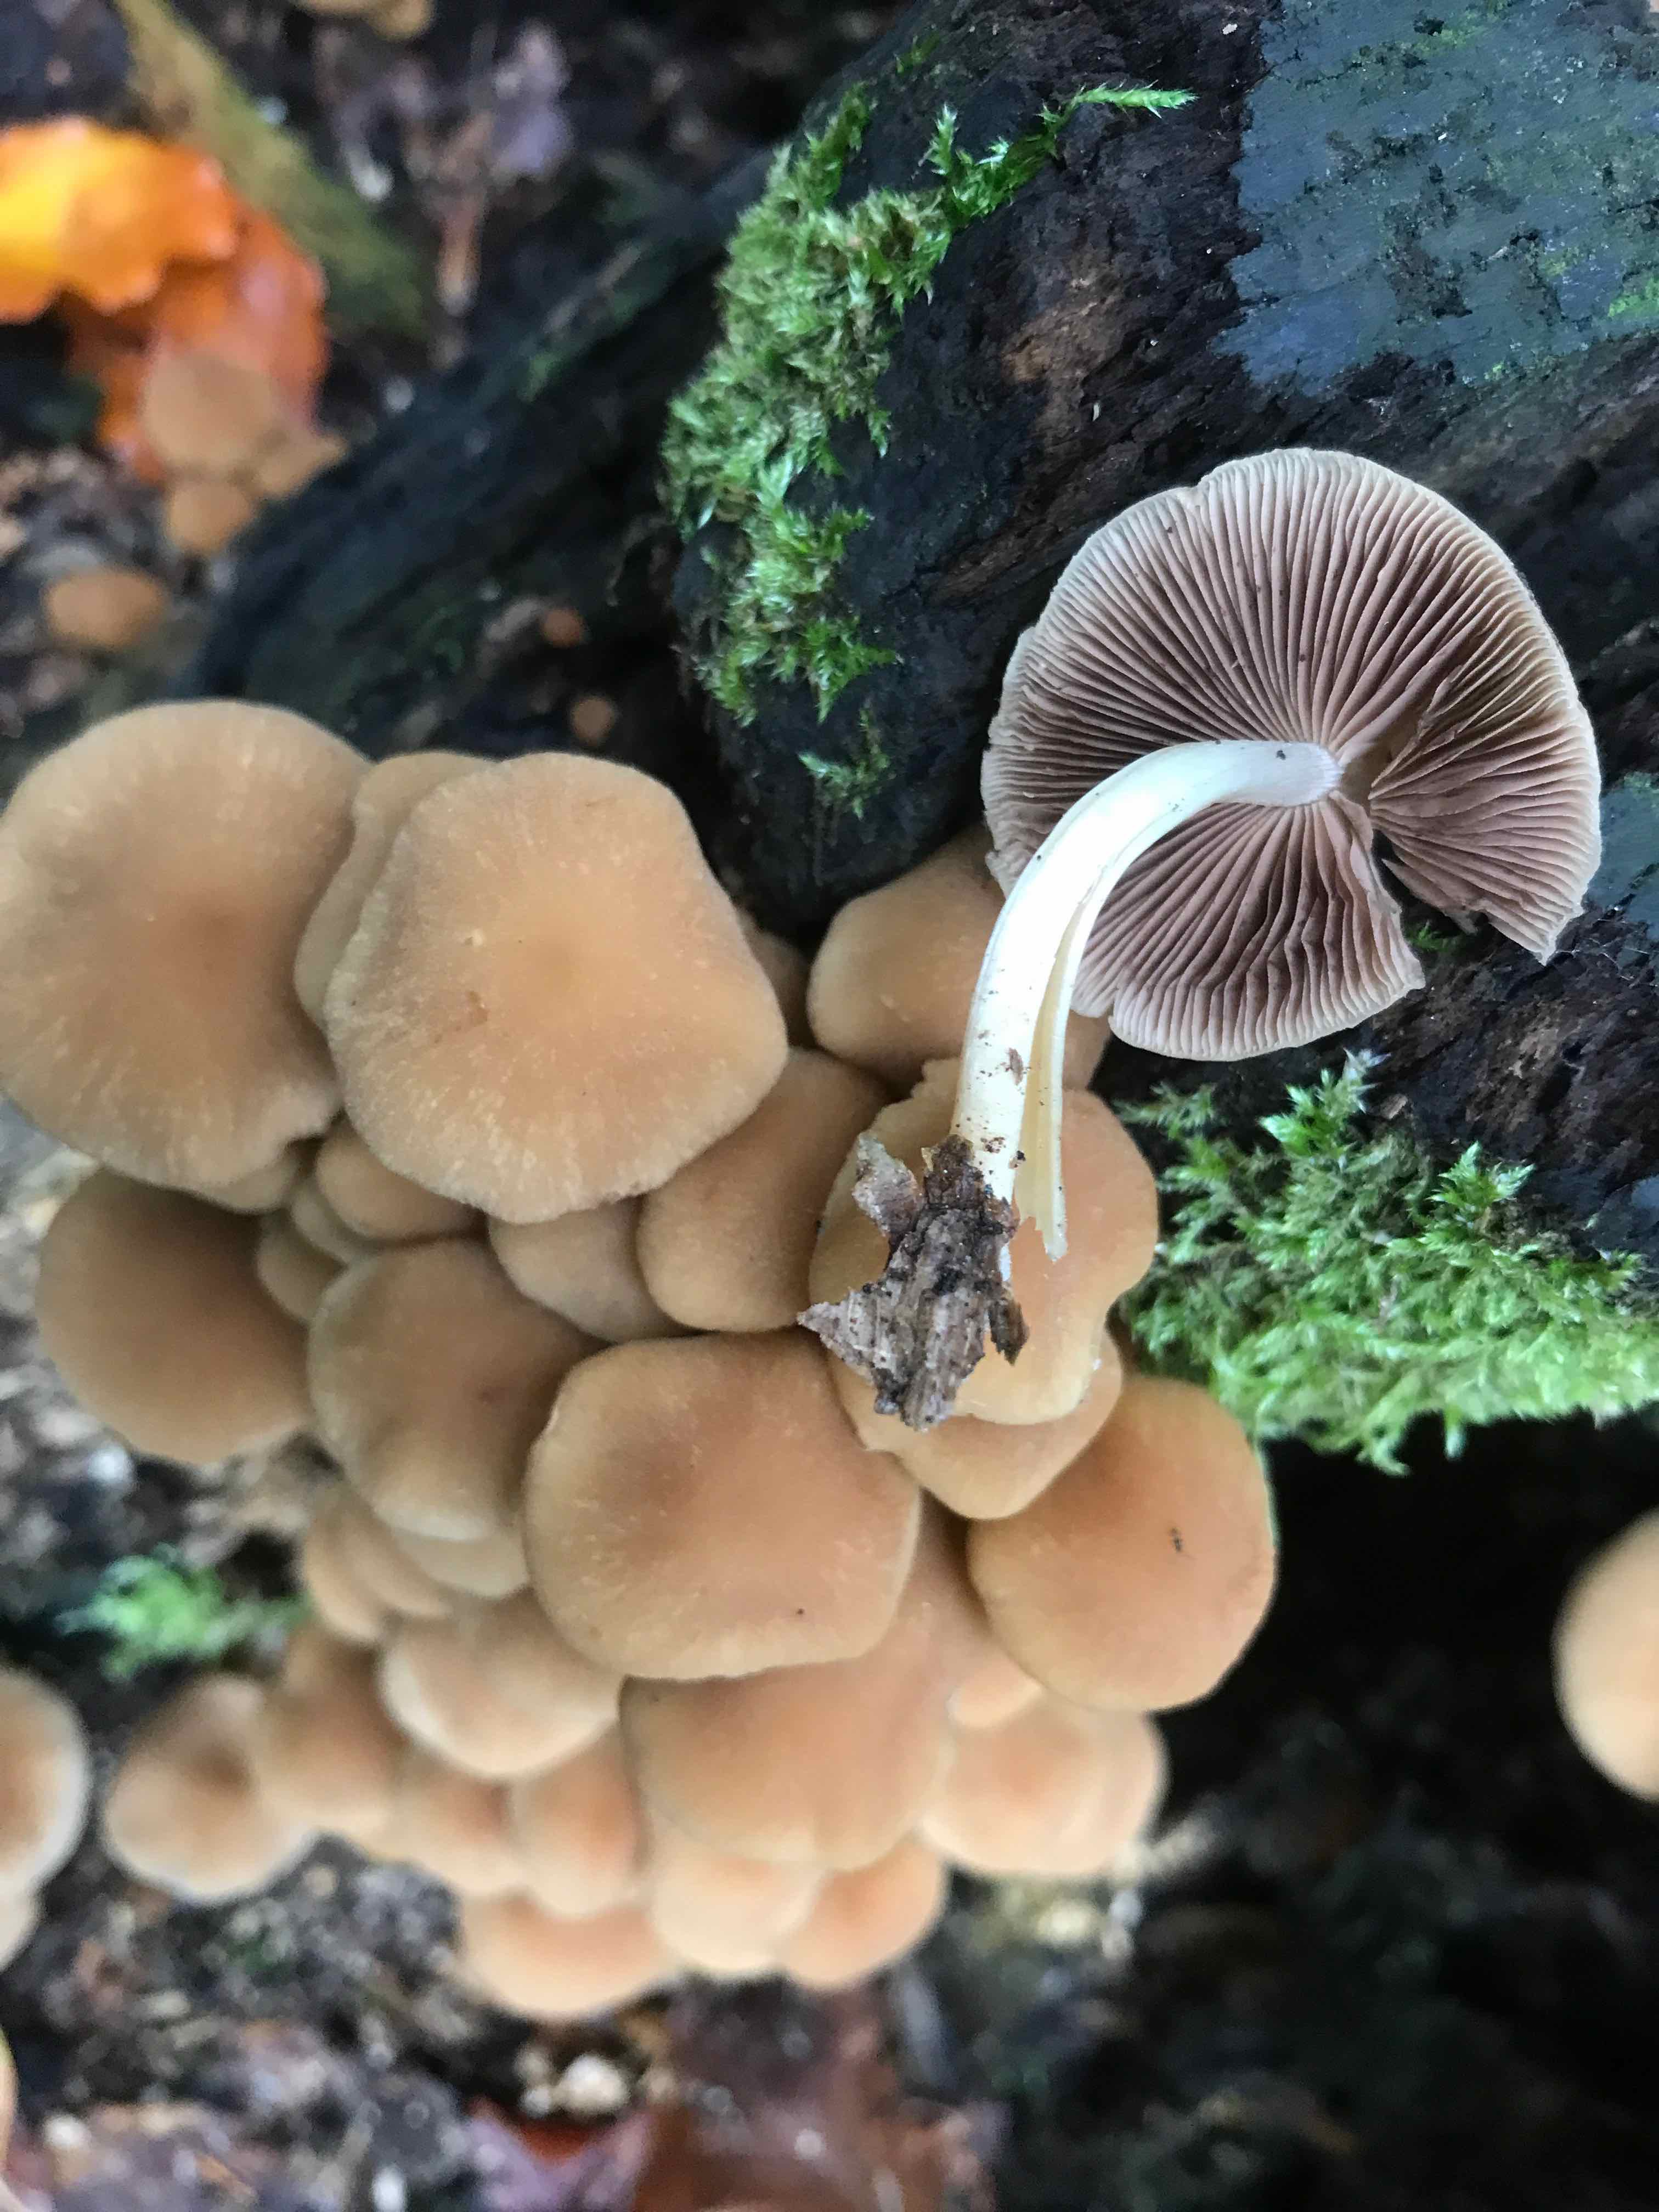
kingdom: Fungi
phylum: Basidiomycota
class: Agaricomycetes
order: Agaricales
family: Psathyrellaceae
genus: Psathyrella
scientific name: Psathyrella piluliformis
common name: lysstokket mørkhat
